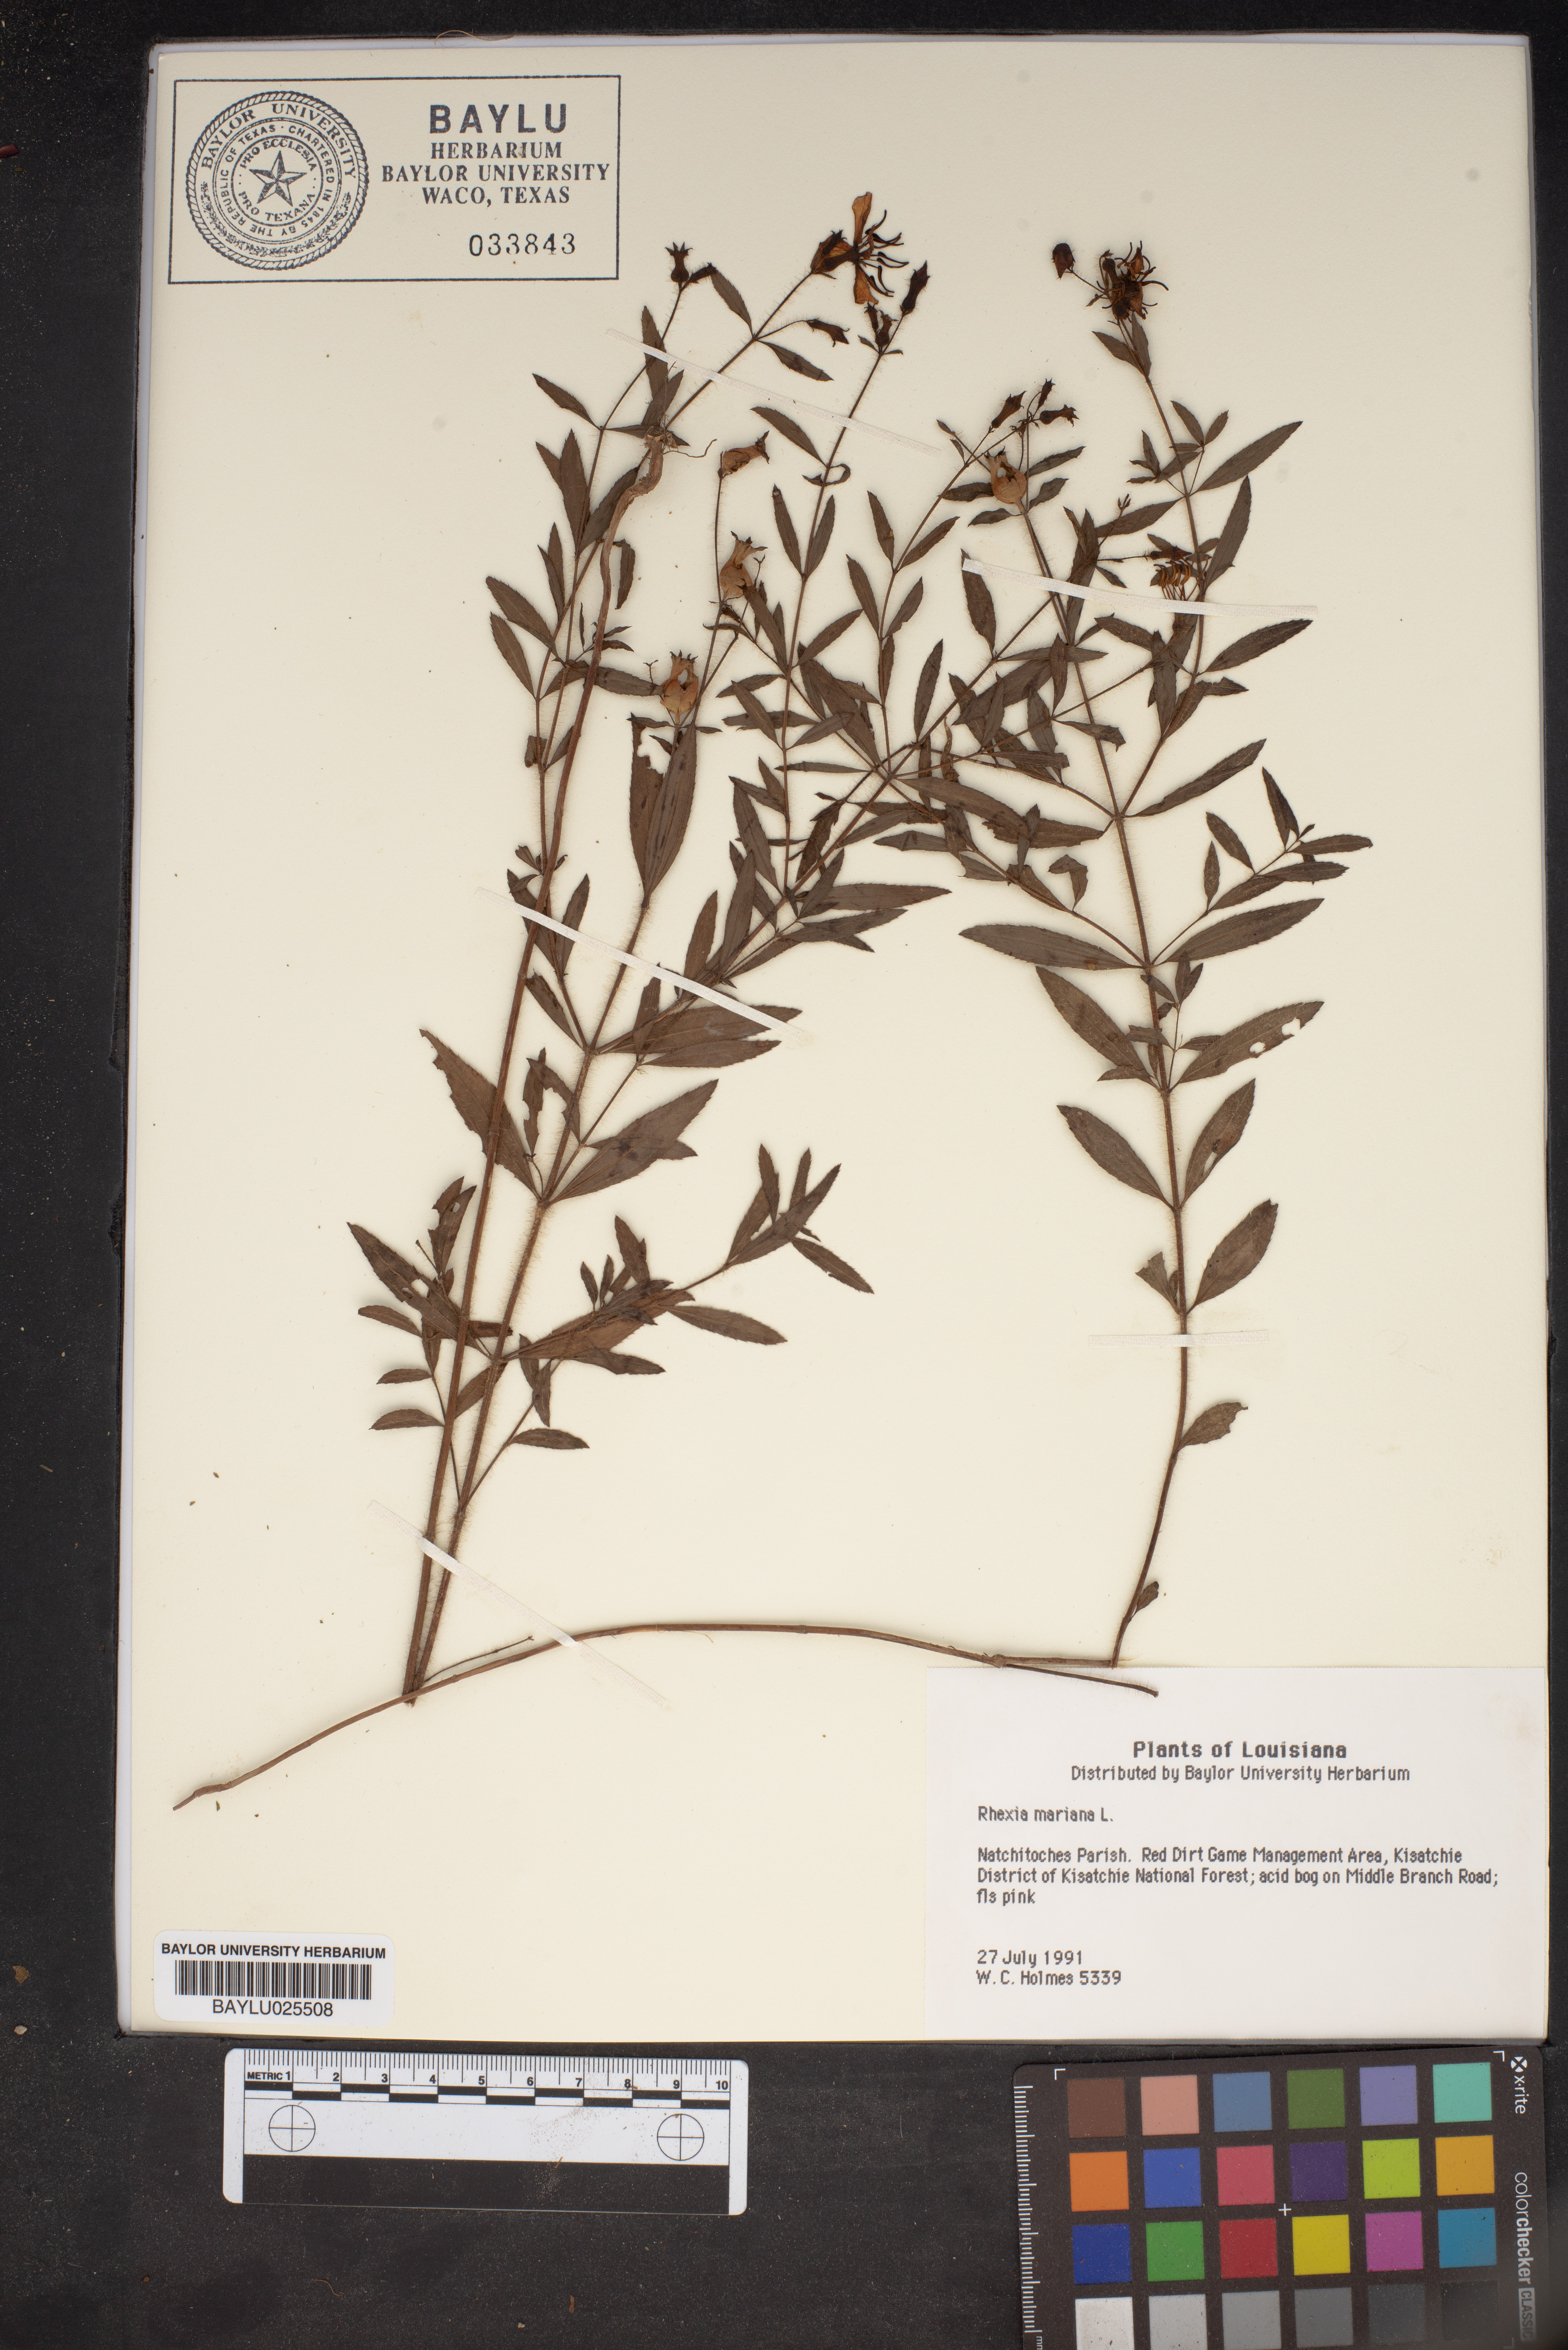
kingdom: Plantae
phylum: Tracheophyta
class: Magnoliopsida
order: Myrtales
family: Melastomataceae
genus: Rhexia
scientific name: Rhexia mariana
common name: Dull meadow-pitcher
